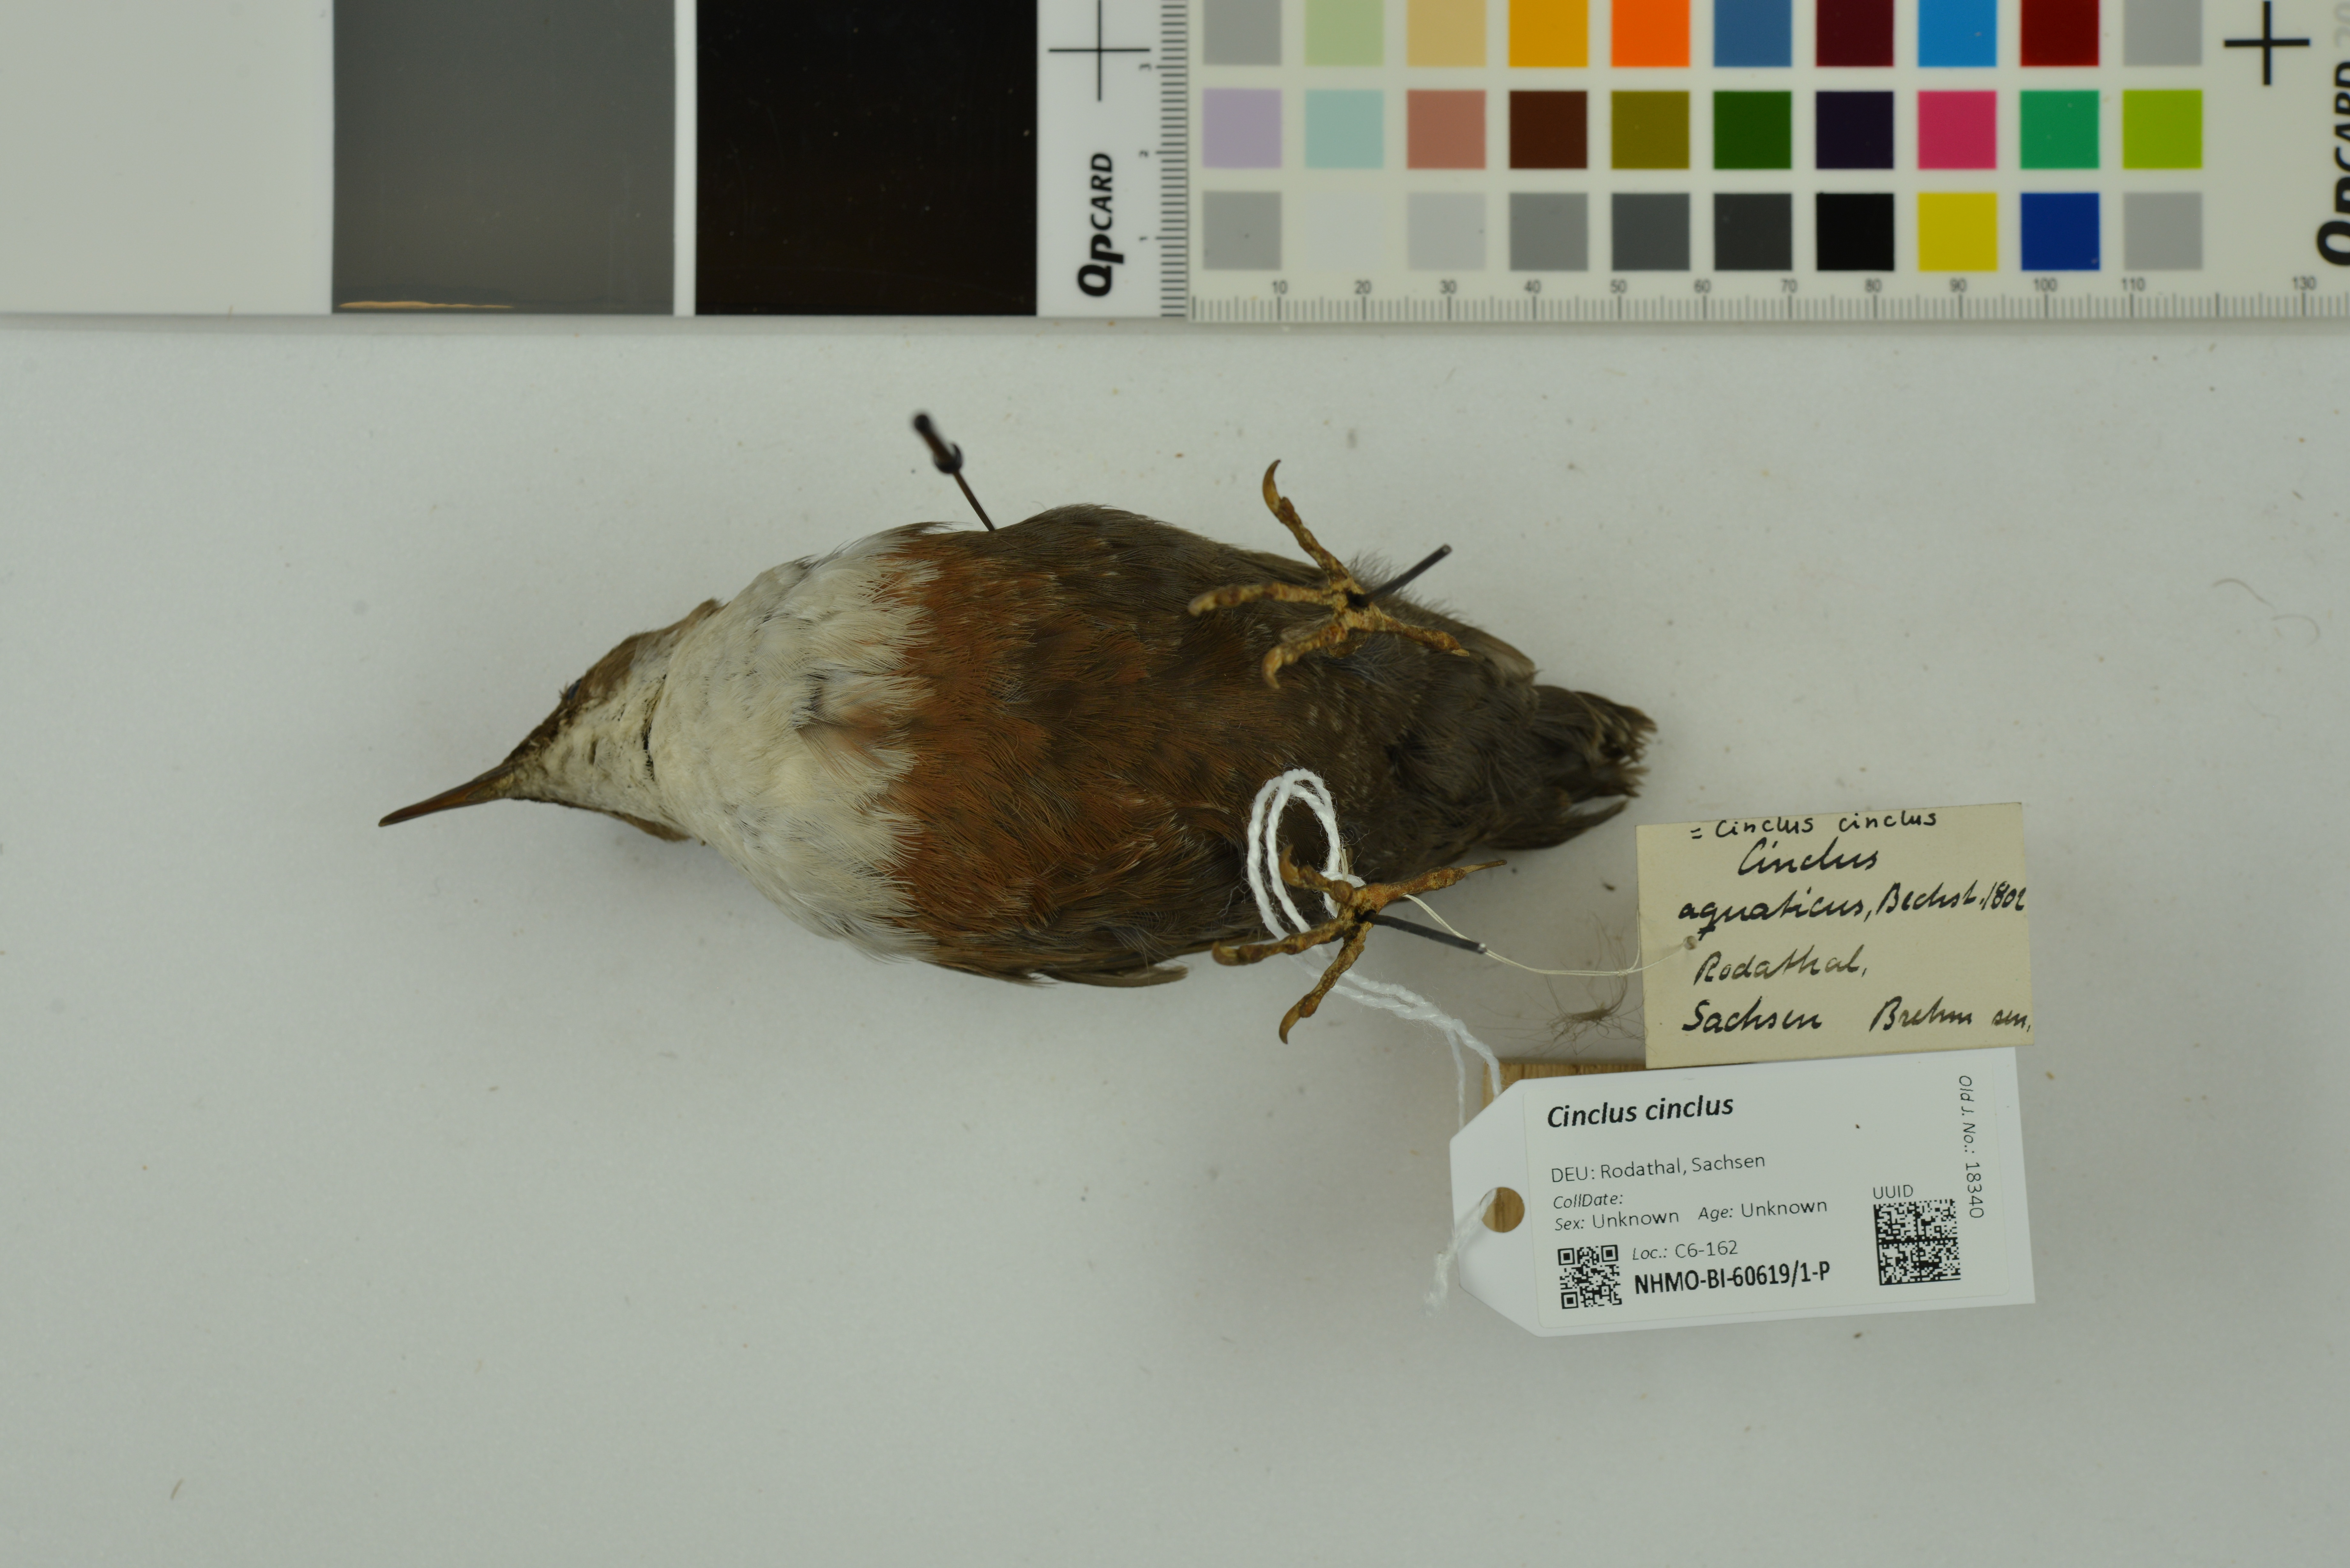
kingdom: Animalia
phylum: Chordata
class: Aves
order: Passeriformes
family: Cinclidae
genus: Cinclus
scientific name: Cinclus cinclus
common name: White-throated dipper
